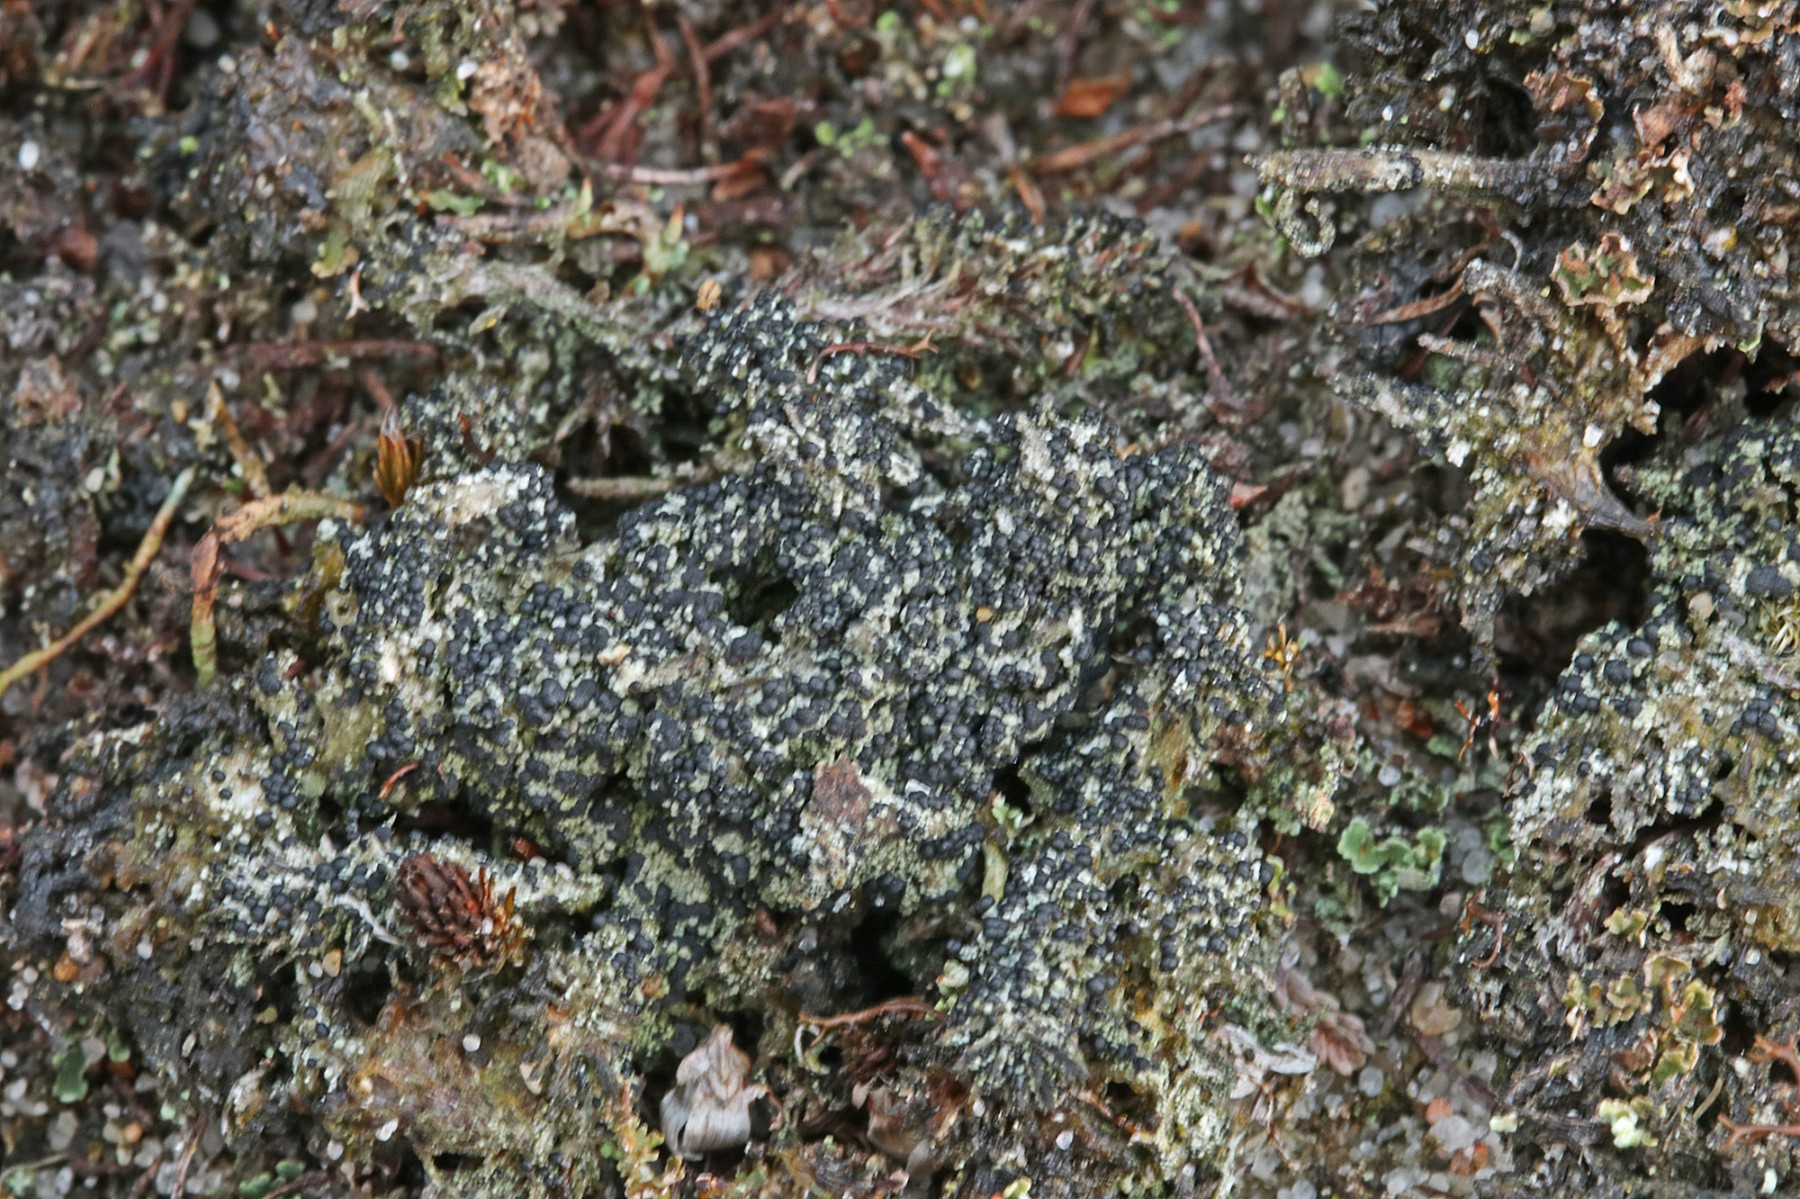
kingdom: Fungi
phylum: Ascomycota
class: Lecanoromycetes
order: Lecanorales
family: Byssolomataceae
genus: Micarea
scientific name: Micarea lignaria
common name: tørve-knaplav
